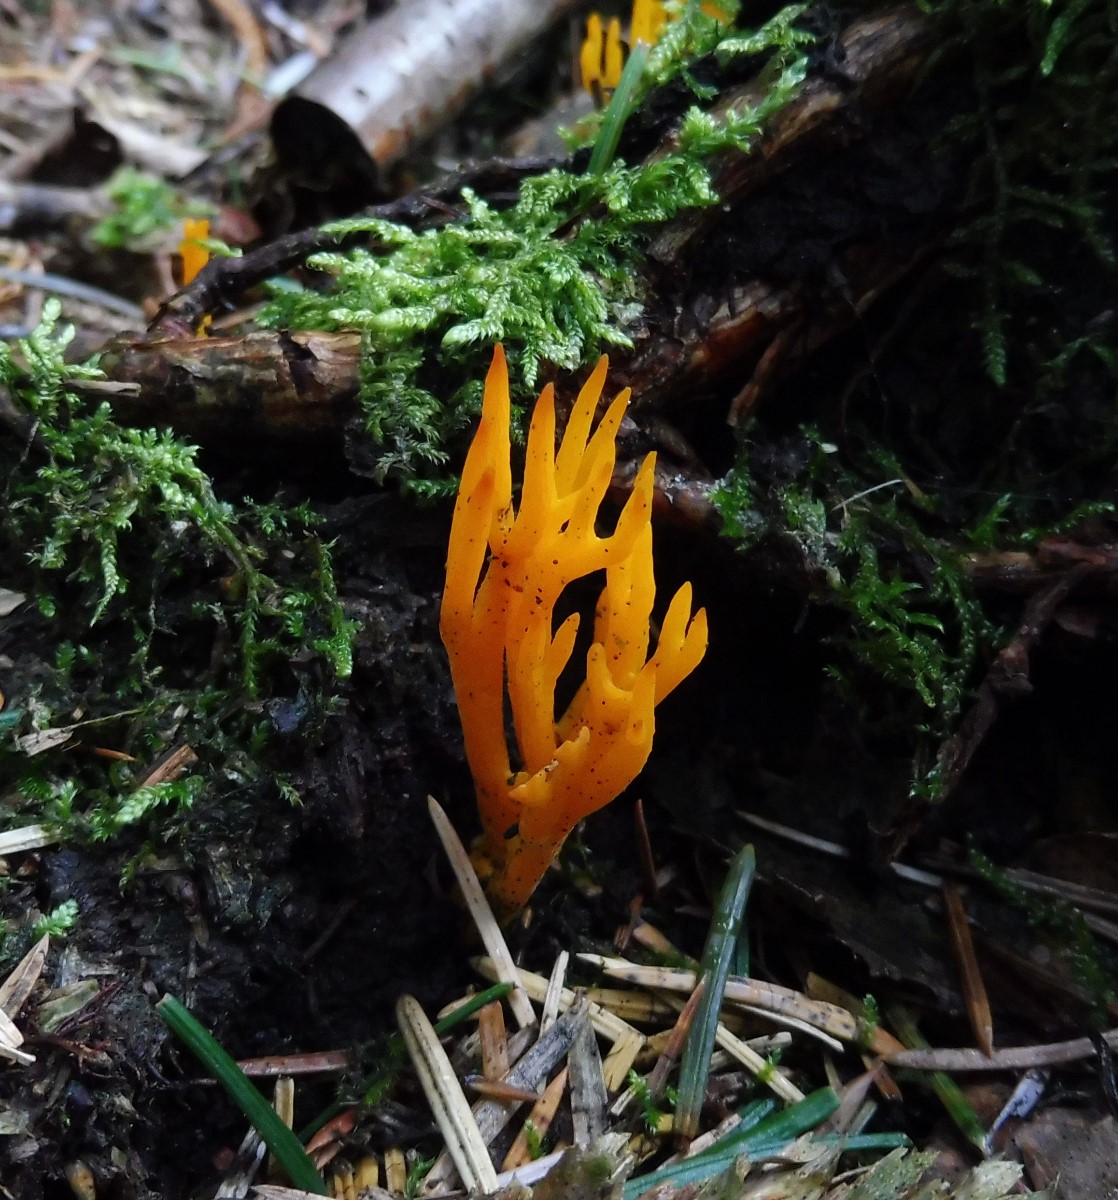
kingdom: Fungi
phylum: Basidiomycota
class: Dacrymycetes
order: Dacrymycetales
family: Dacrymycetaceae
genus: Calocera
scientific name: Calocera viscosa
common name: almindelig guldgaffel
